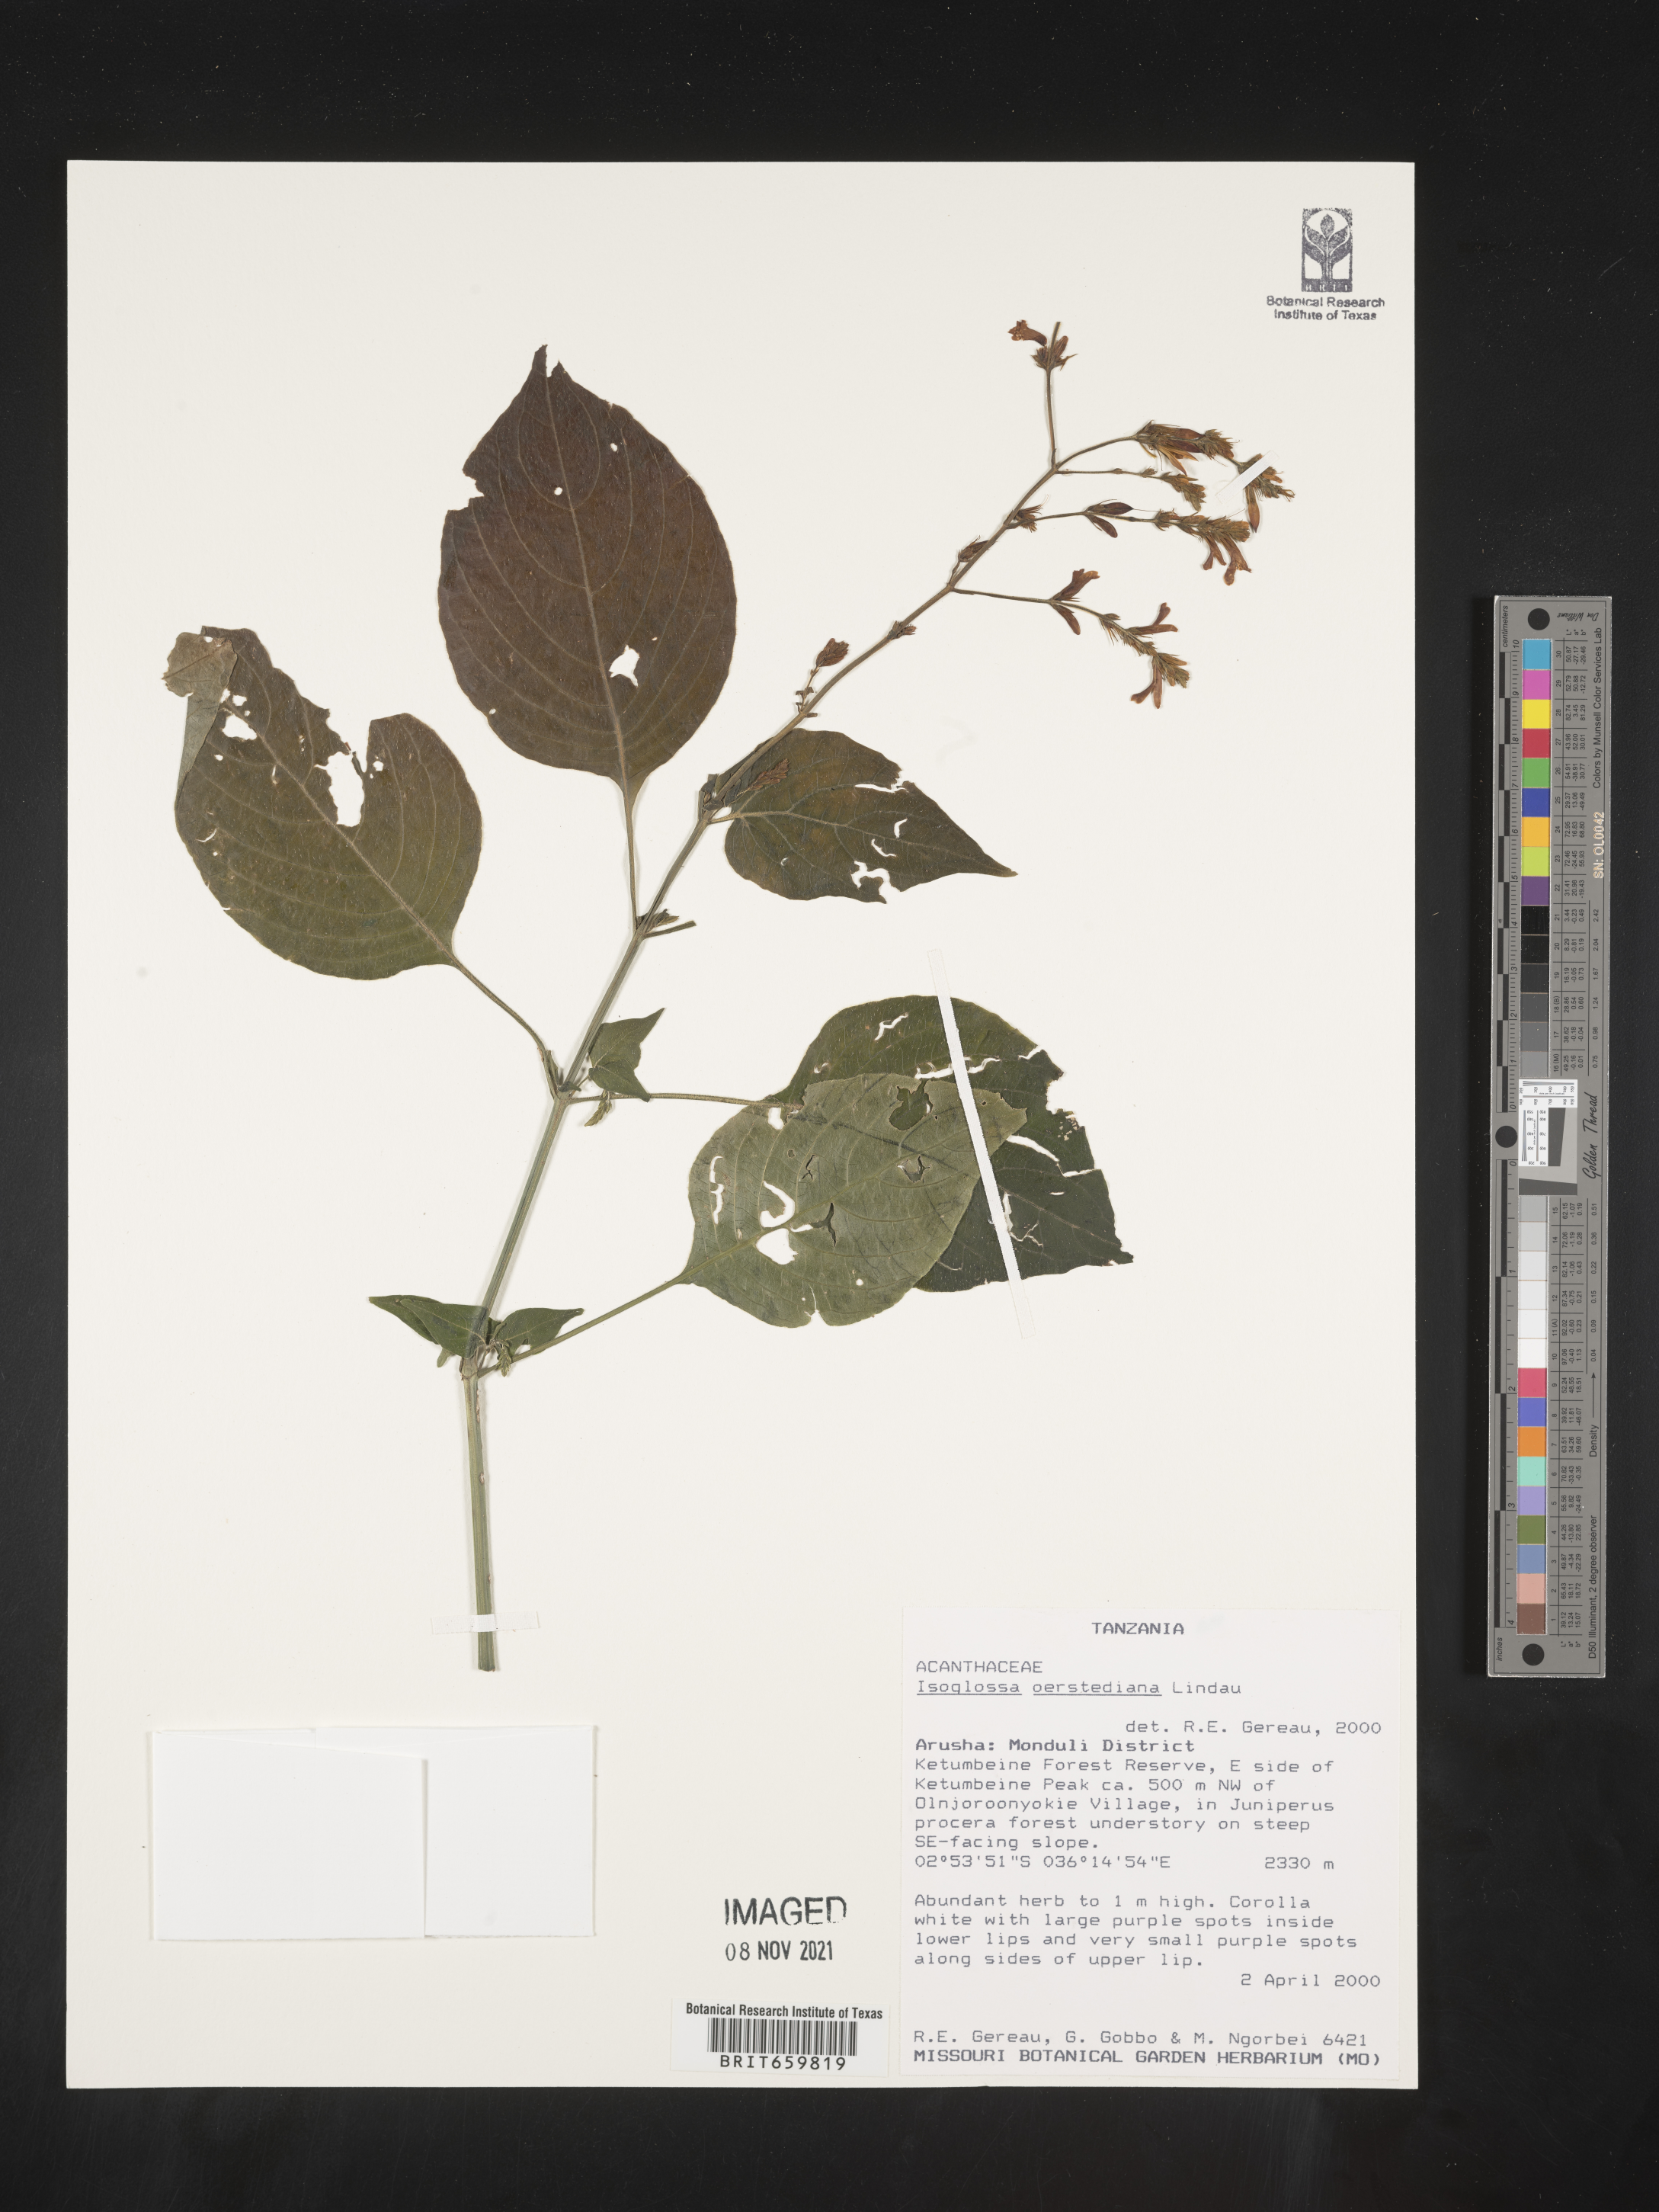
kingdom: Plantae
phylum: Tracheophyta
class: Magnoliopsida
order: Lamiales
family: Acanthaceae
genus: Isoglossa
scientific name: Isoglossa gregorii
